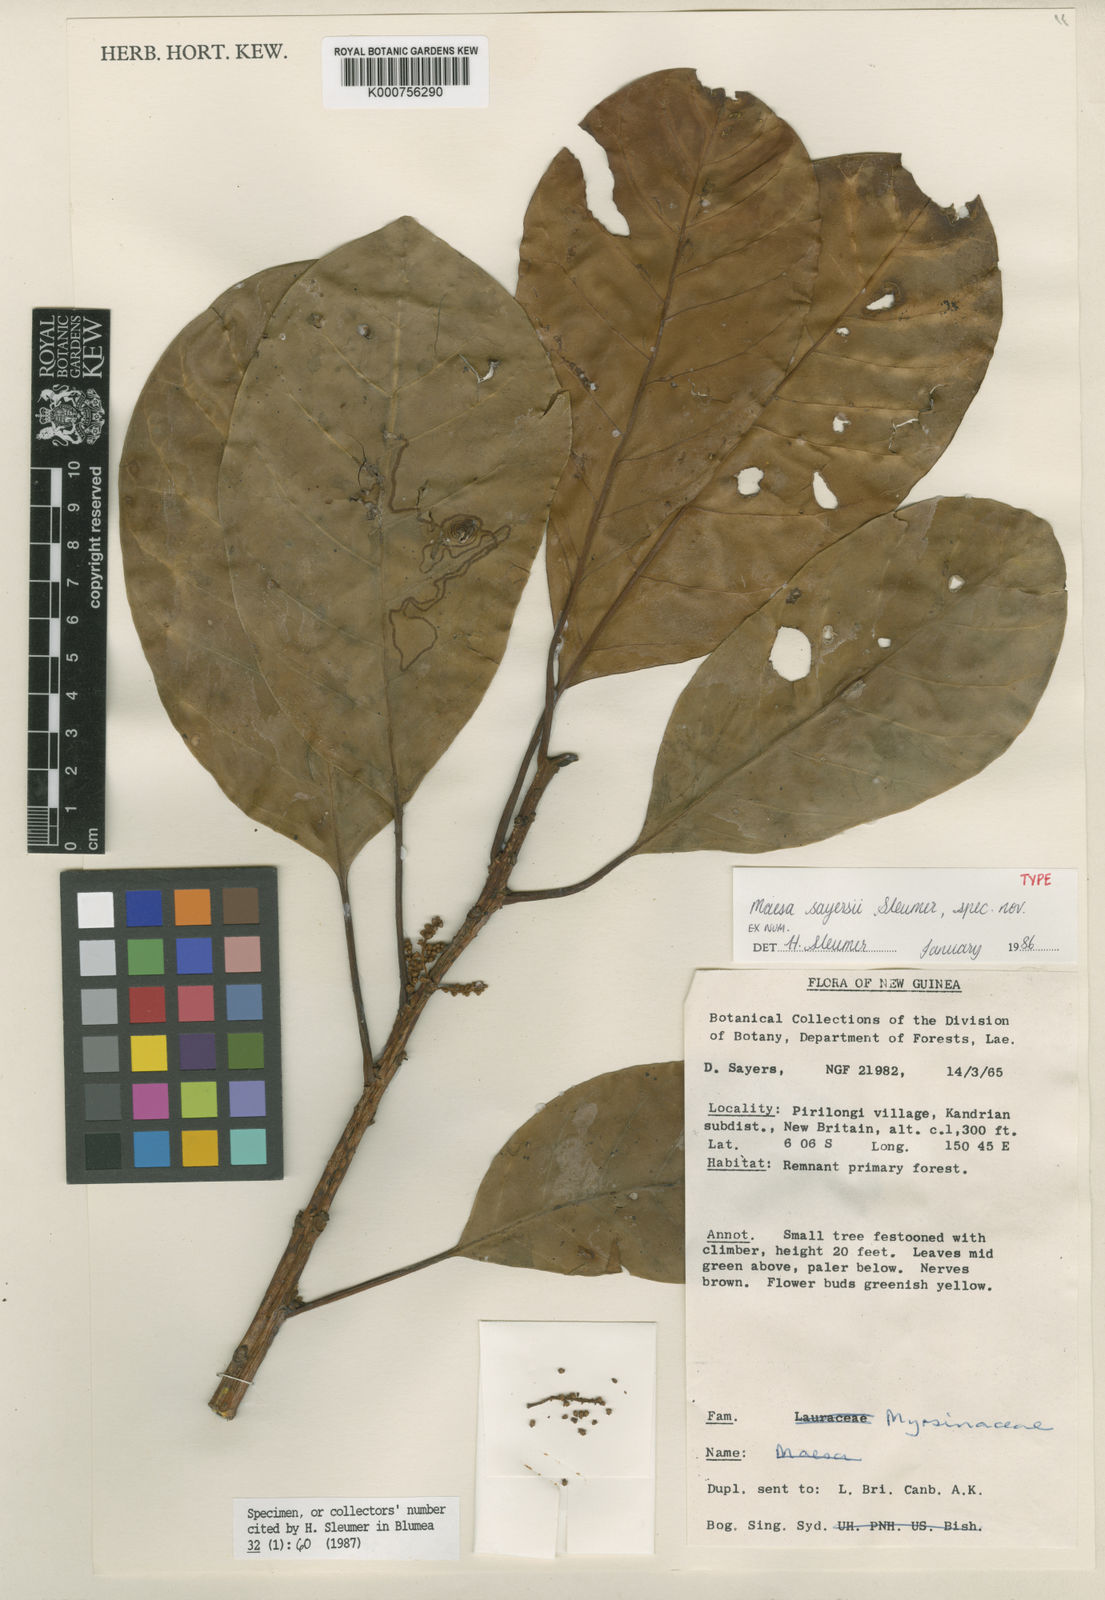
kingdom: Plantae
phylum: Tracheophyta
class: Magnoliopsida
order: Ericales
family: Primulaceae
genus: Maesa
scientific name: Maesa sayersii
